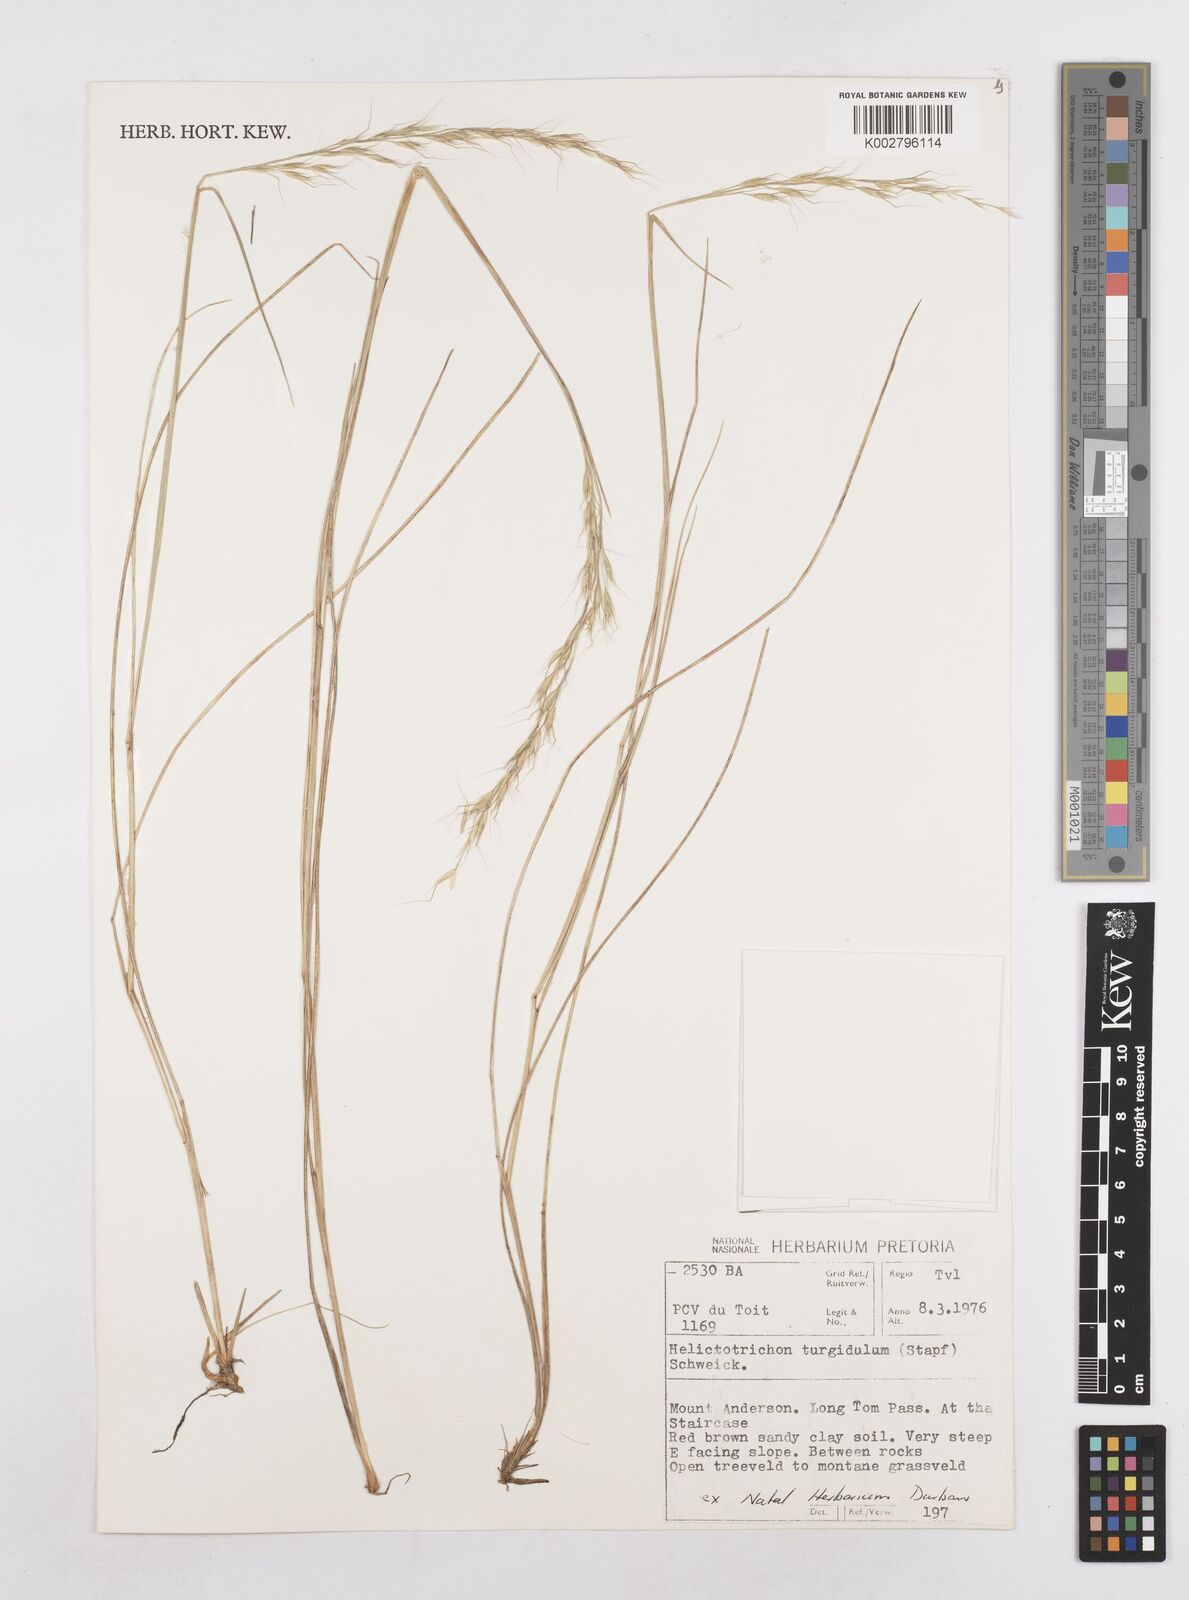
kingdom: Plantae
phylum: Tracheophyta
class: Liliopsida
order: Poales
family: Poaceae
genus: Trisetopsis
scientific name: Trisetopsis imberbis
